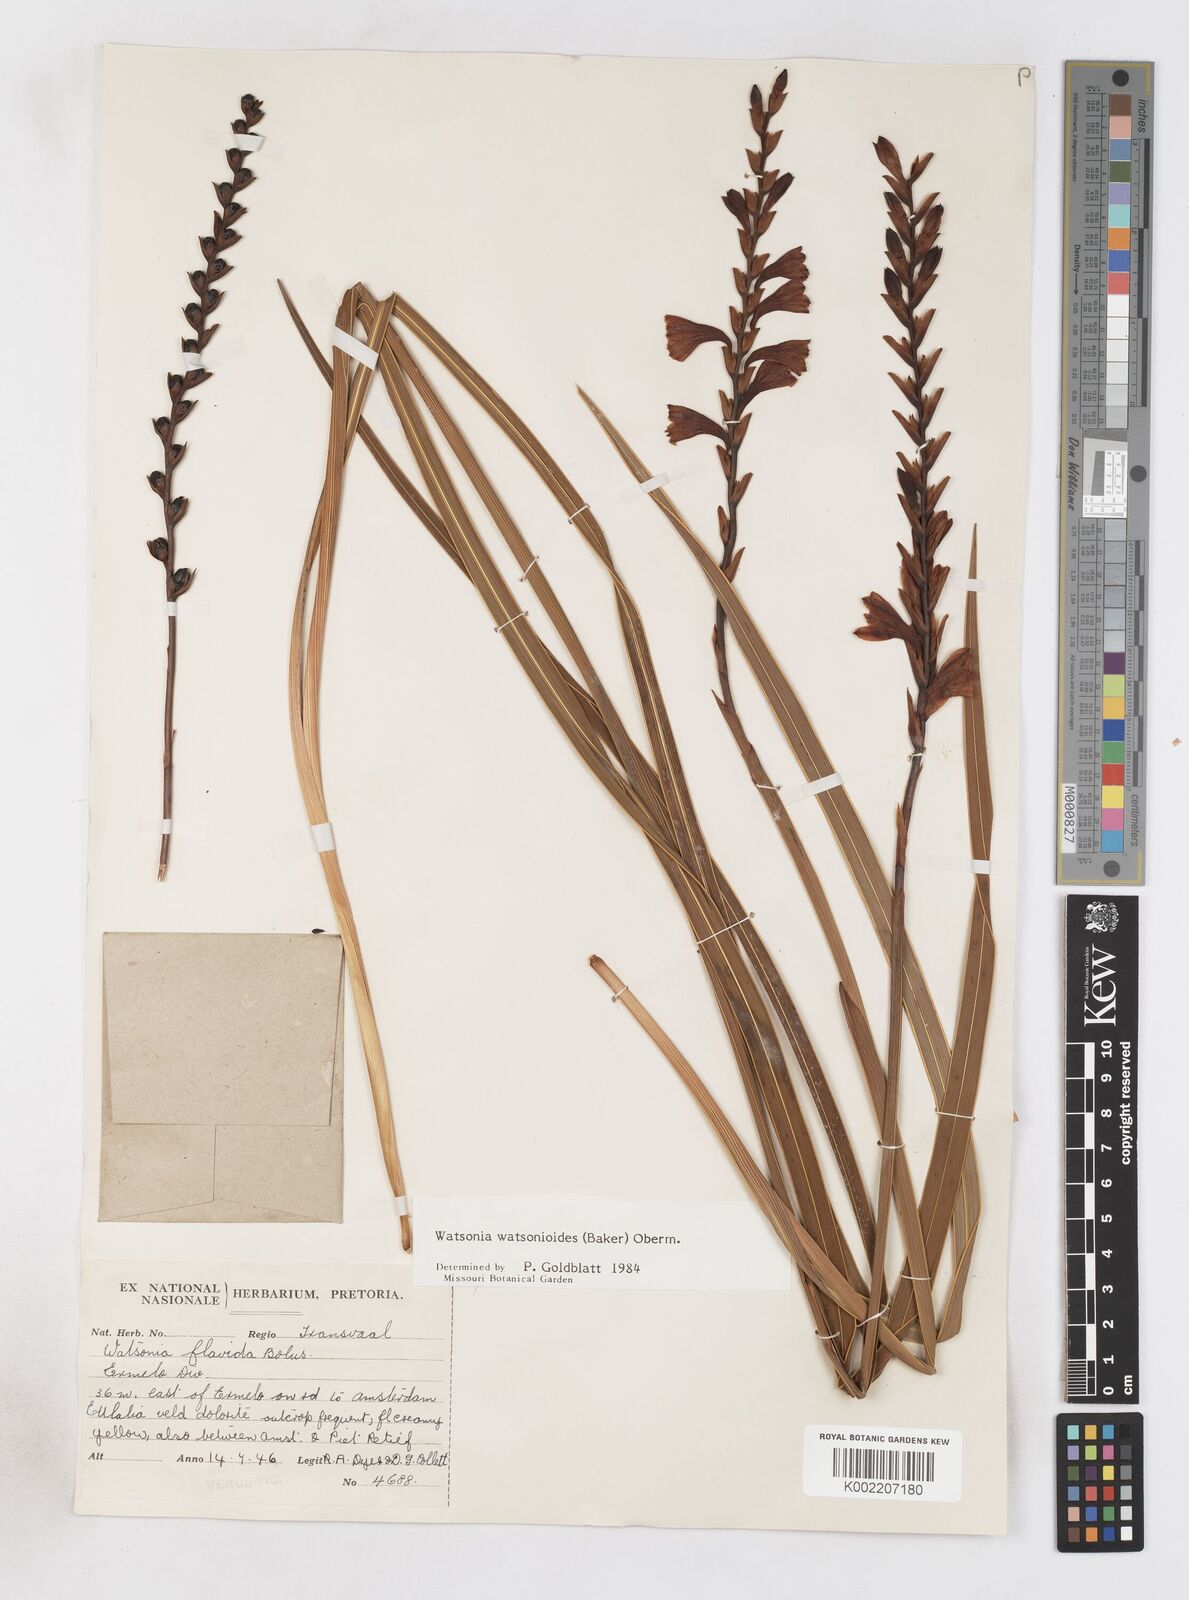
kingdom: Plantae
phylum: Tracheophyta
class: Liliopsida
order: Asparagales
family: Iridaceae
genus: Watsonia
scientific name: Watsonia watsonioides
